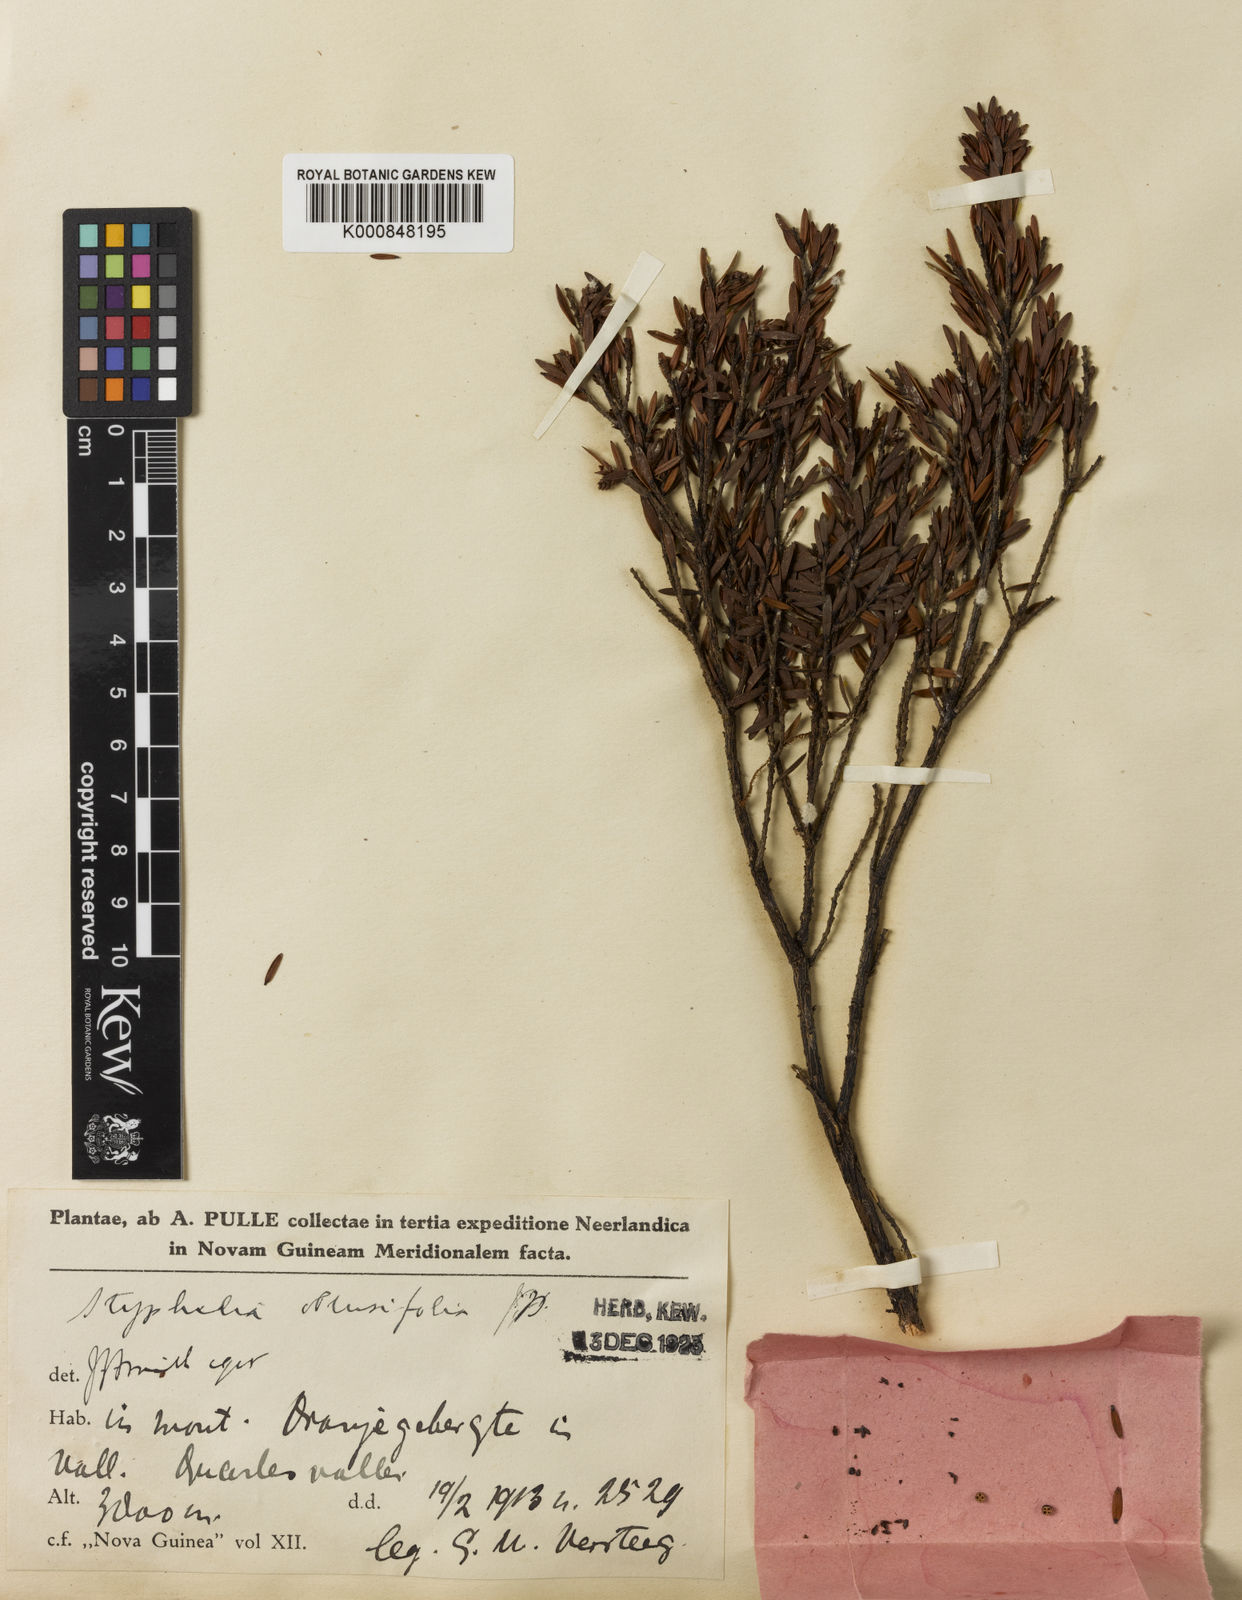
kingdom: Plantae
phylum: Tracheophyta
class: Magnoliopsida
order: Ericales
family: Ericaceae
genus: Styphelia
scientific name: Styphelia
